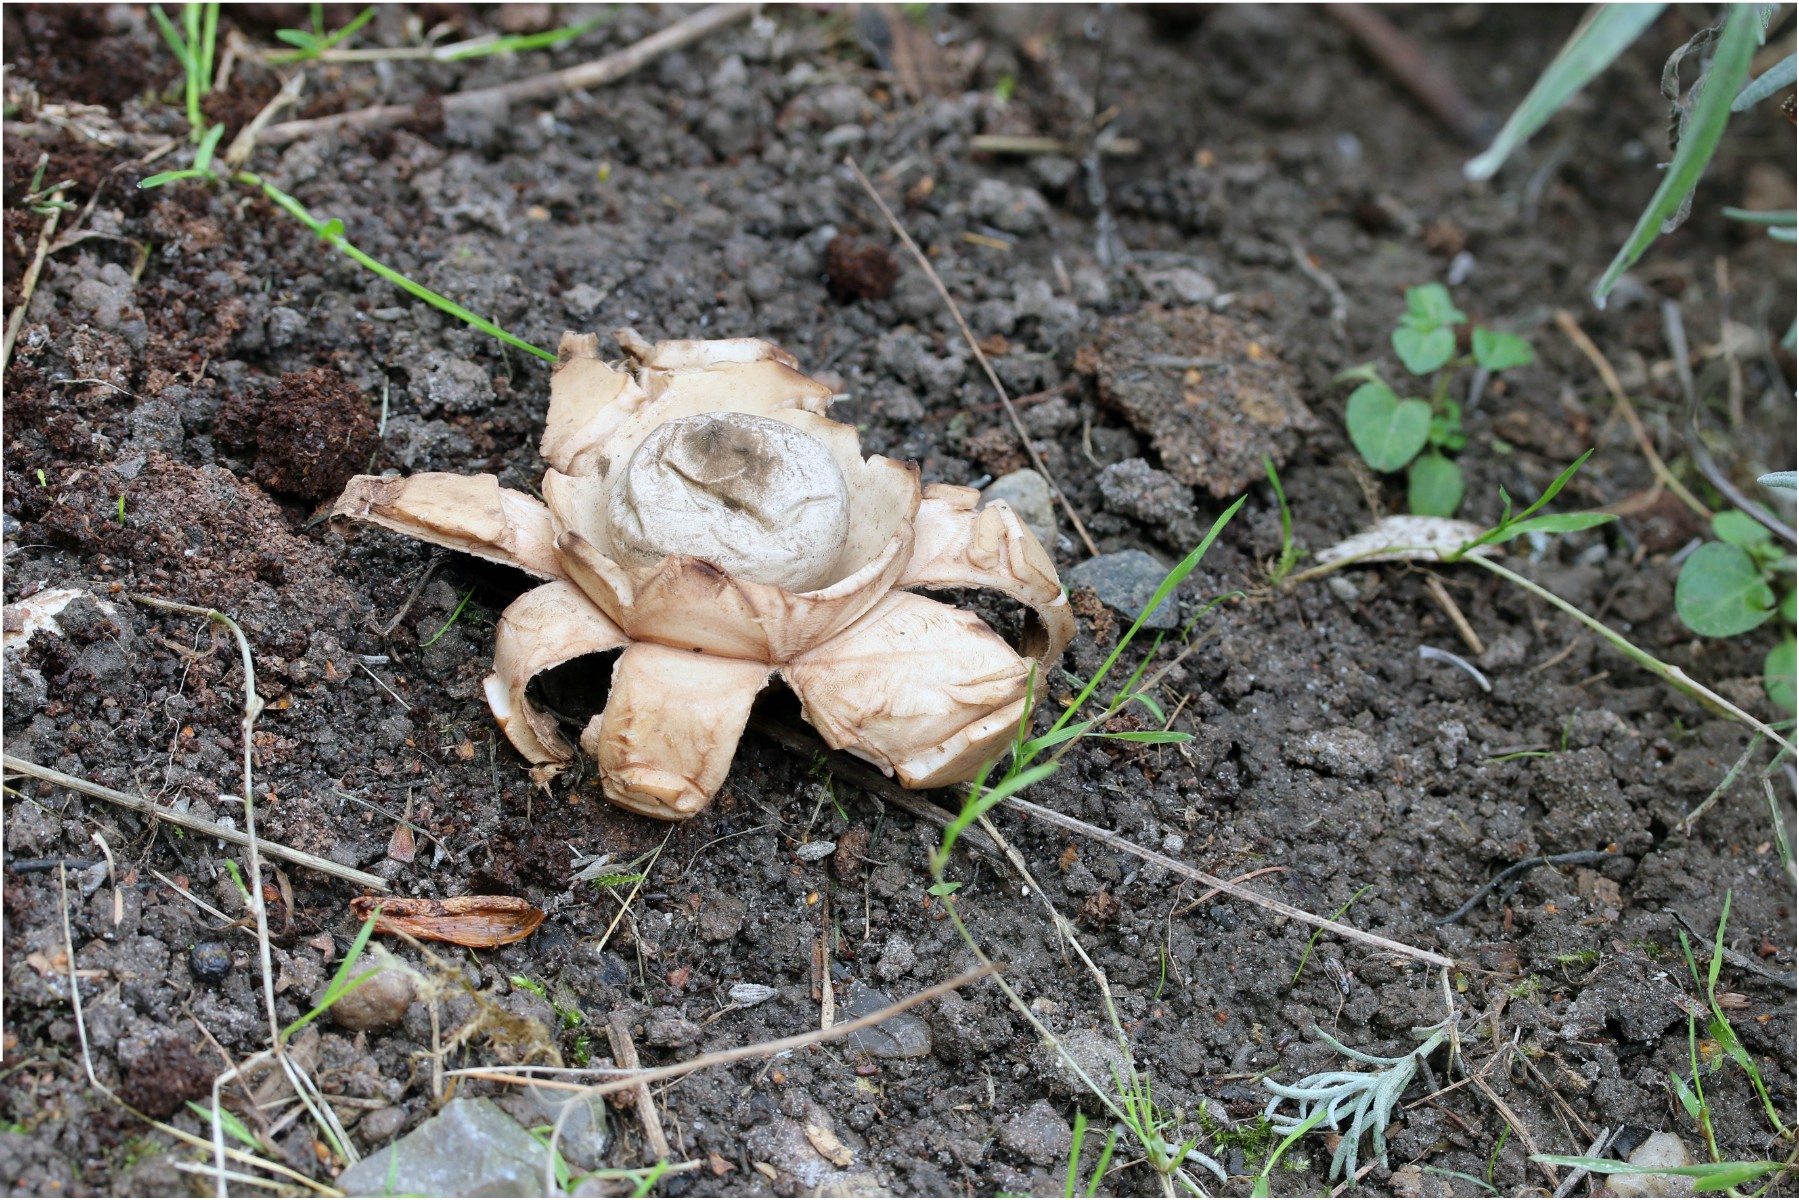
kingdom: Fungi
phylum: Basidiomycota
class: Agaricomycetes
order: Geastrales
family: Geastraceae
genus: Geastrum
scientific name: Geastrum michelianum
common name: kødet stjernebold
